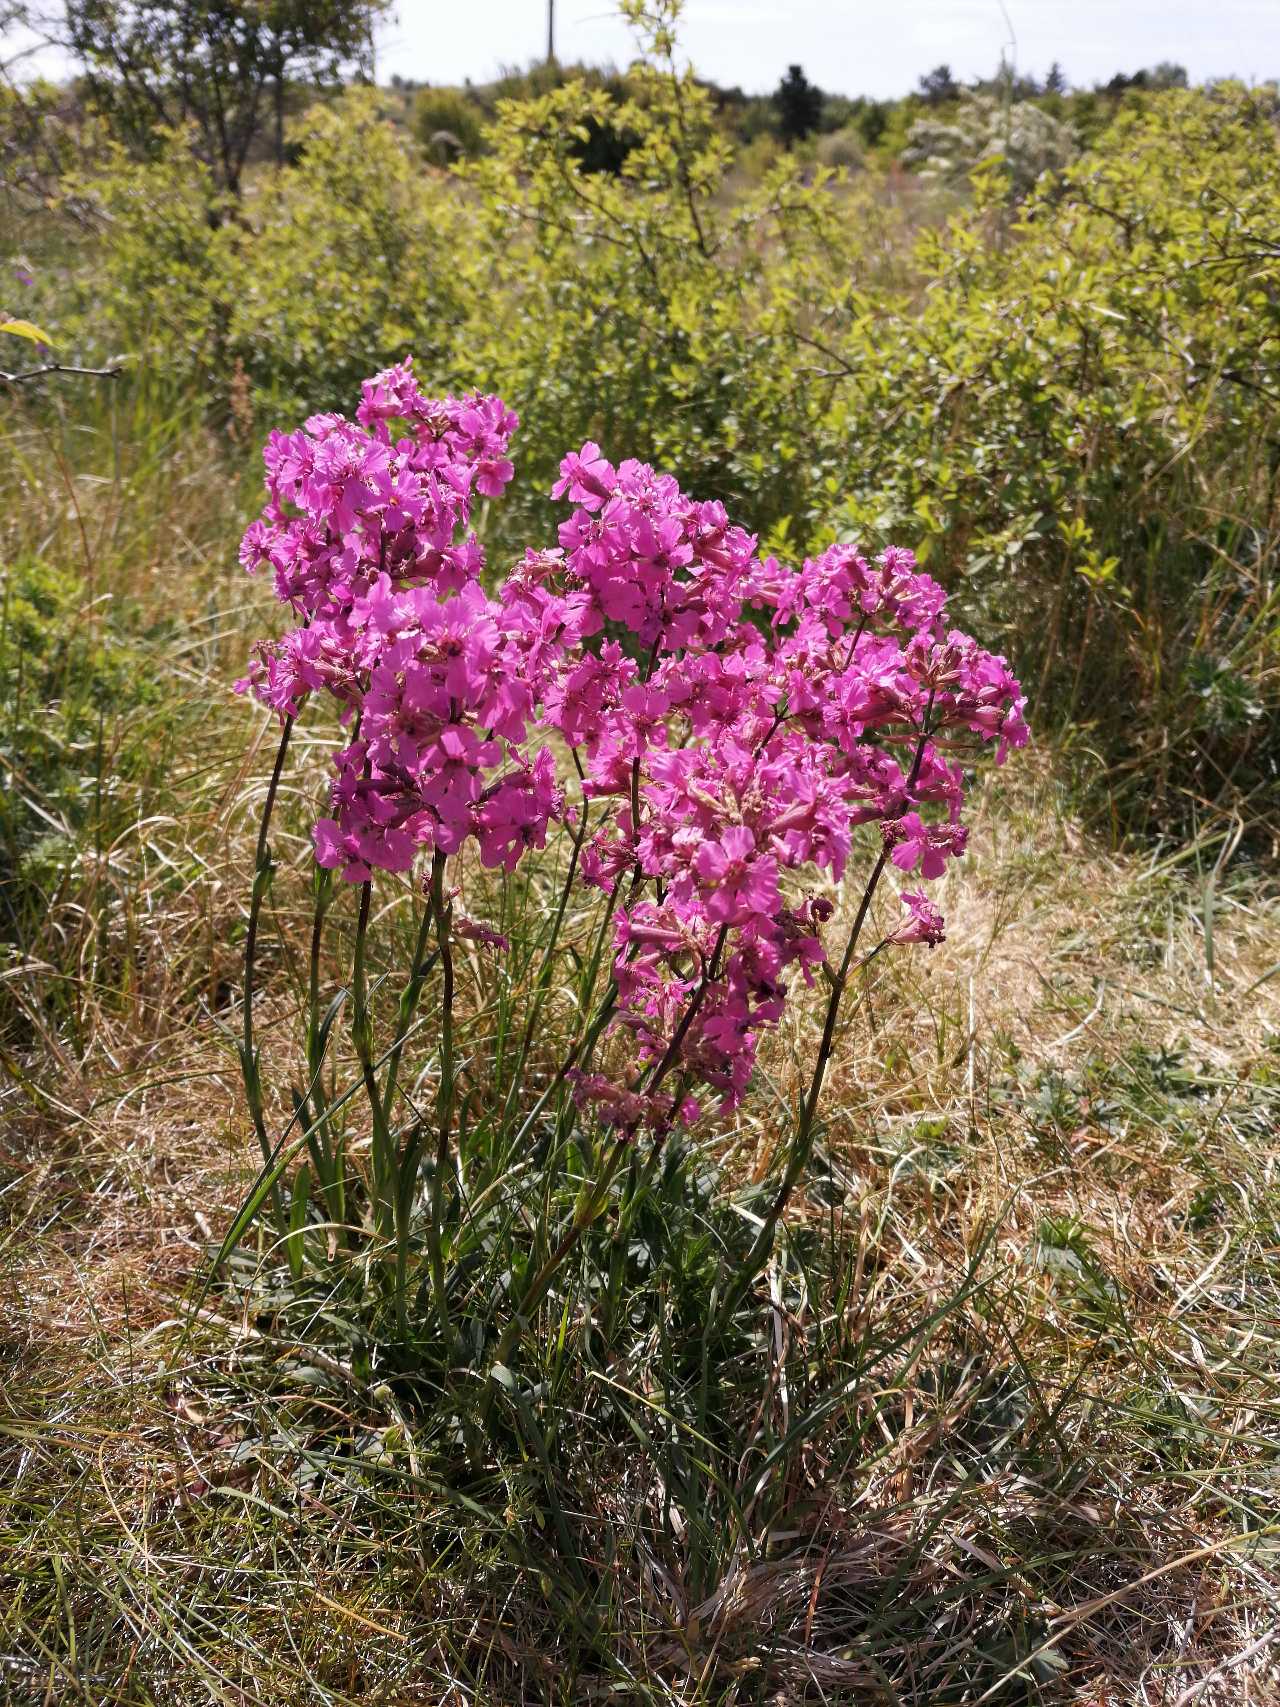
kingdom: Plantae
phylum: Tracheophyta
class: Magnoliopsida
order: Caryophyllales
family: Caryophyllaceae
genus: Viscaria
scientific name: Viscaria vulgaris
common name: Tjærenellike
